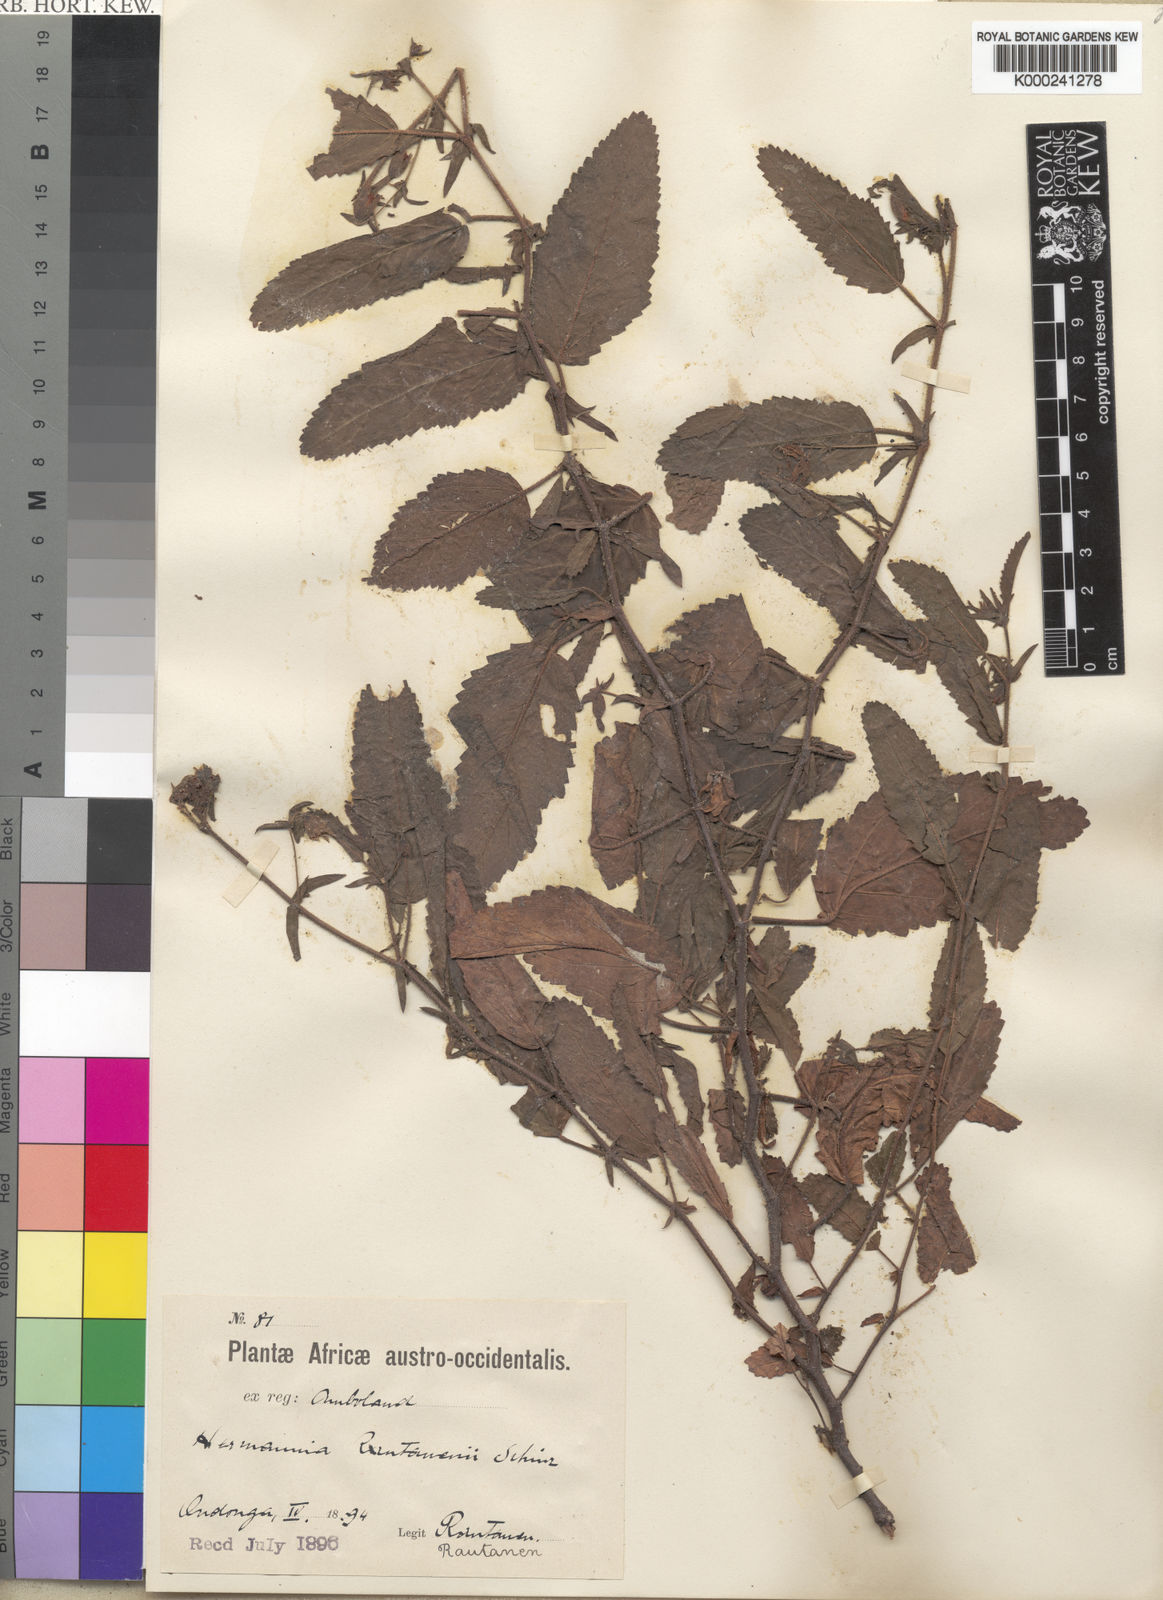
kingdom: Plantae
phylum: Tracheophyta
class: Magnoliopsida
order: Malvales
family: Malvaceae
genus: Hermannia
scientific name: Hermannia rautanenii
